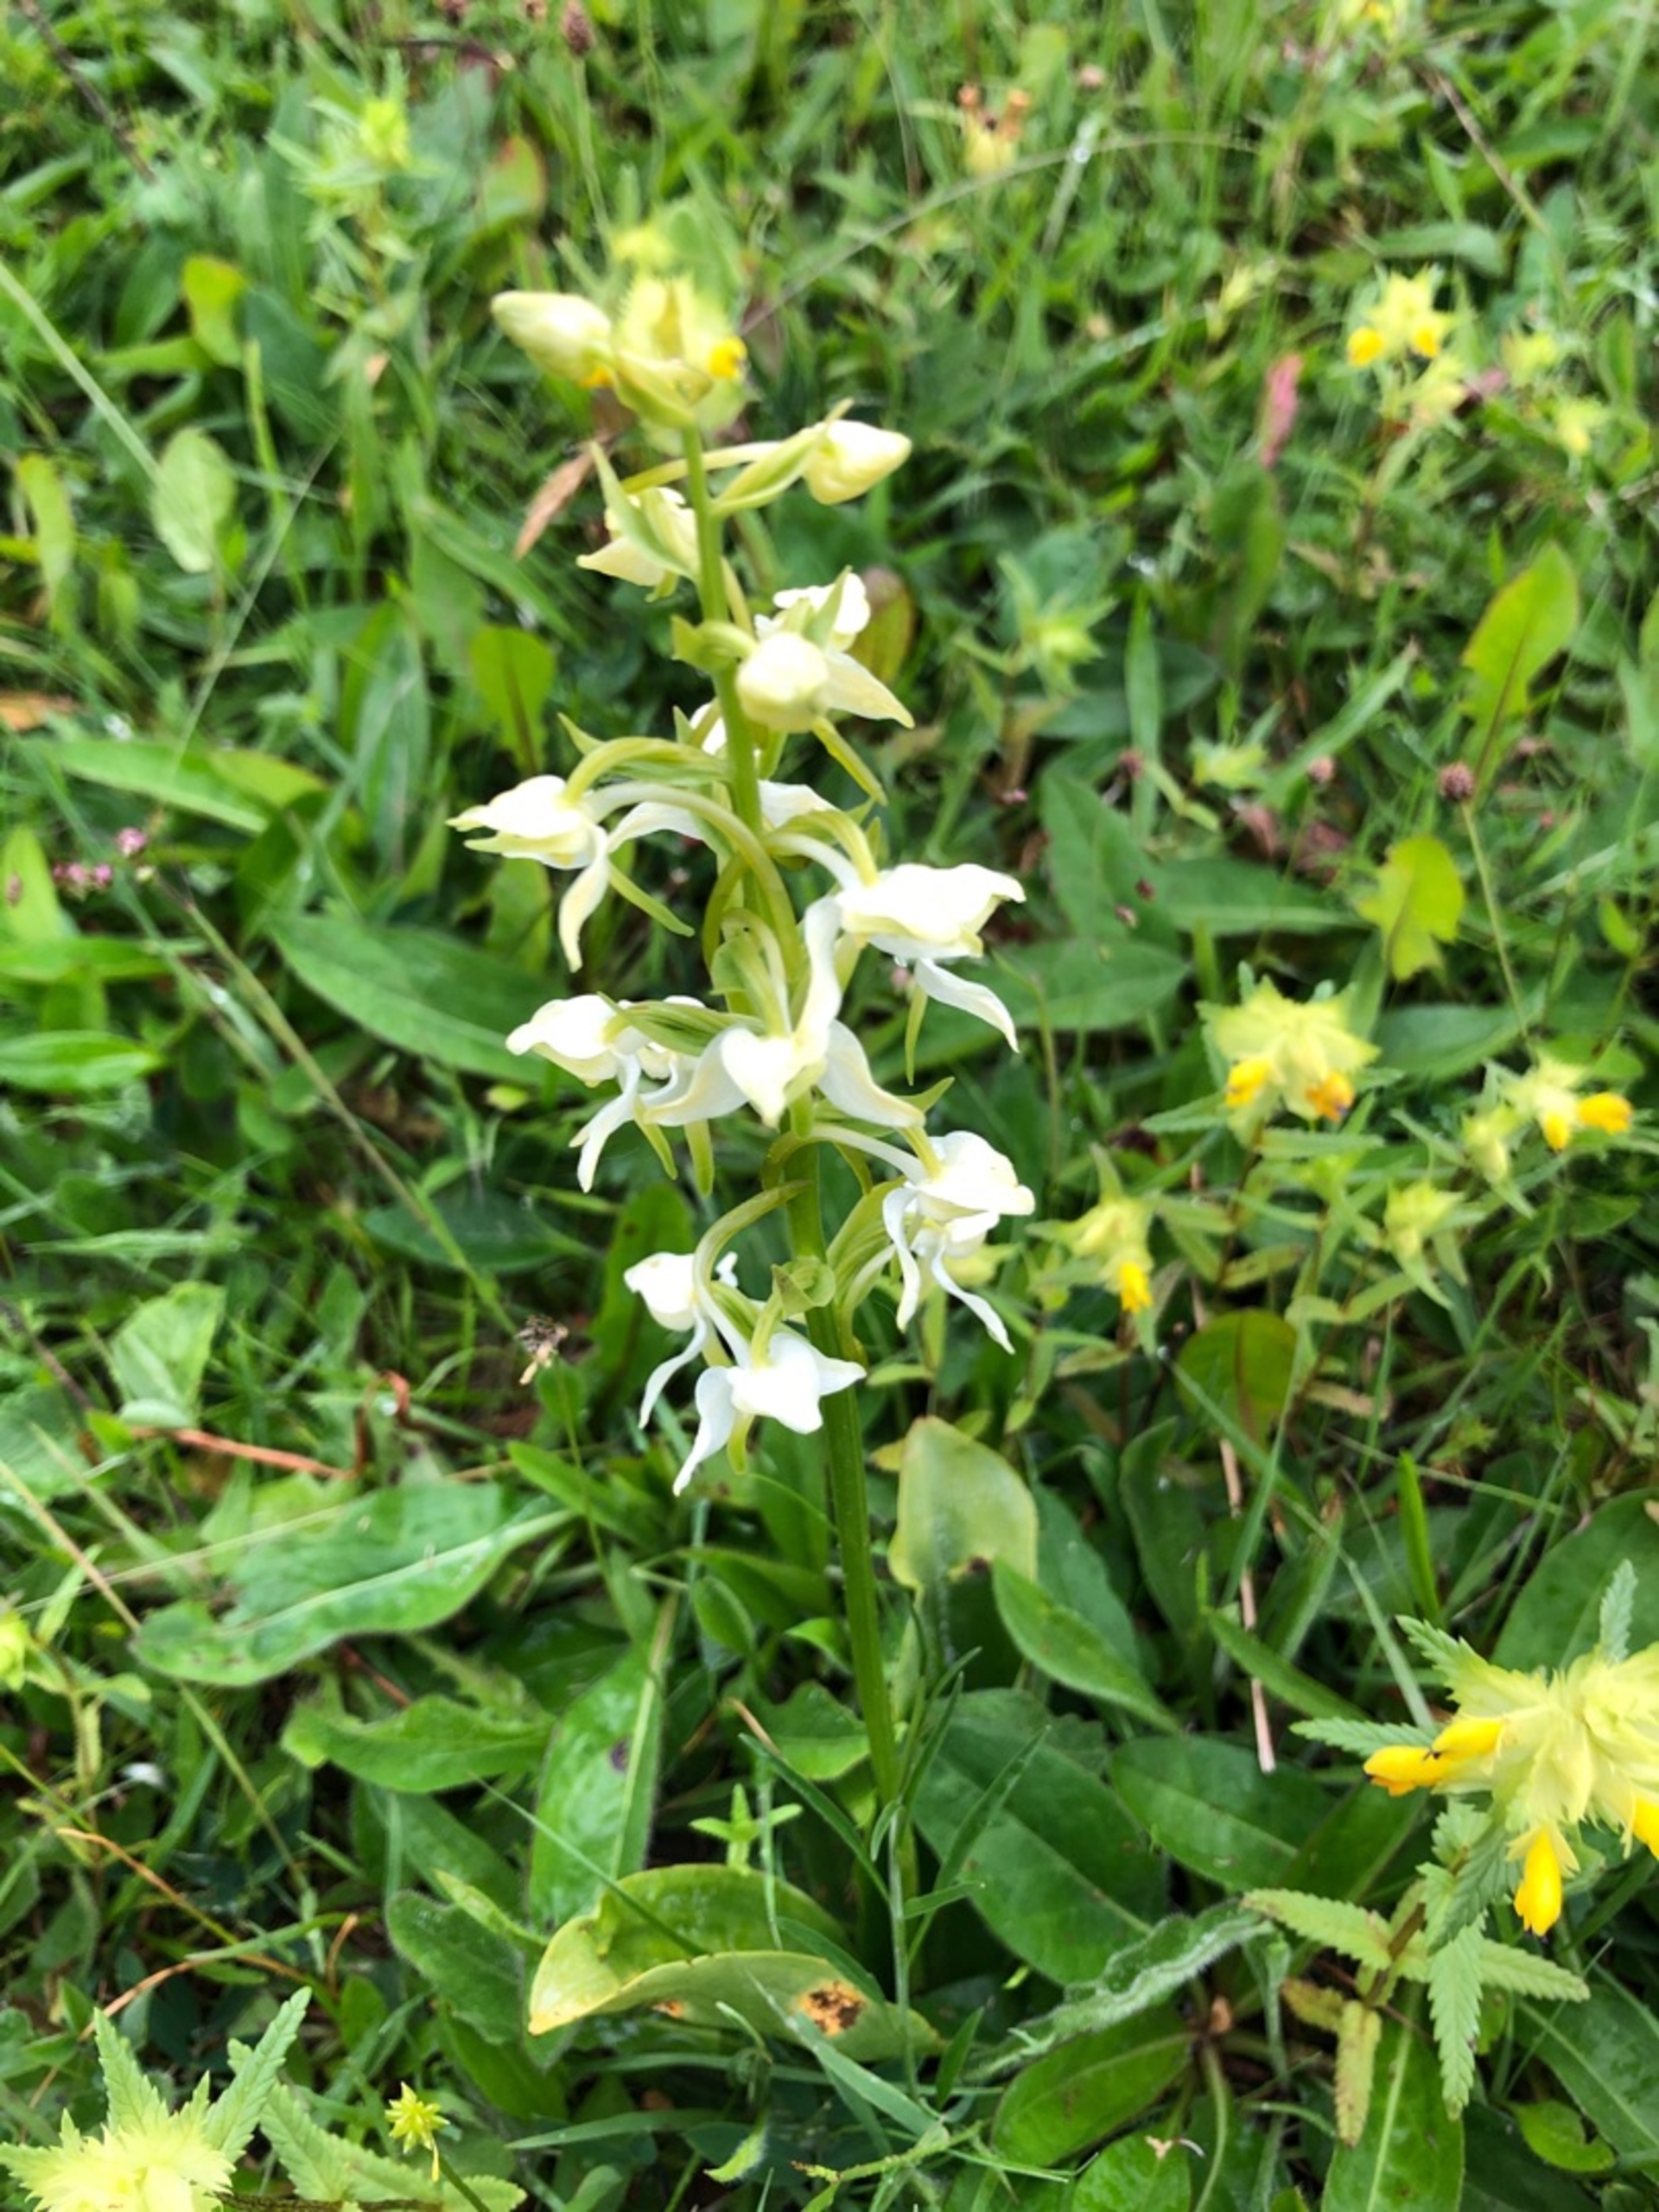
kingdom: Plantae
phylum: Tracheophyta
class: Liliopsida
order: Asparagales
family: Orchidaceae
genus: Platanthera
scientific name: Platanthera chlorantha
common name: Skov-gøgelilje
